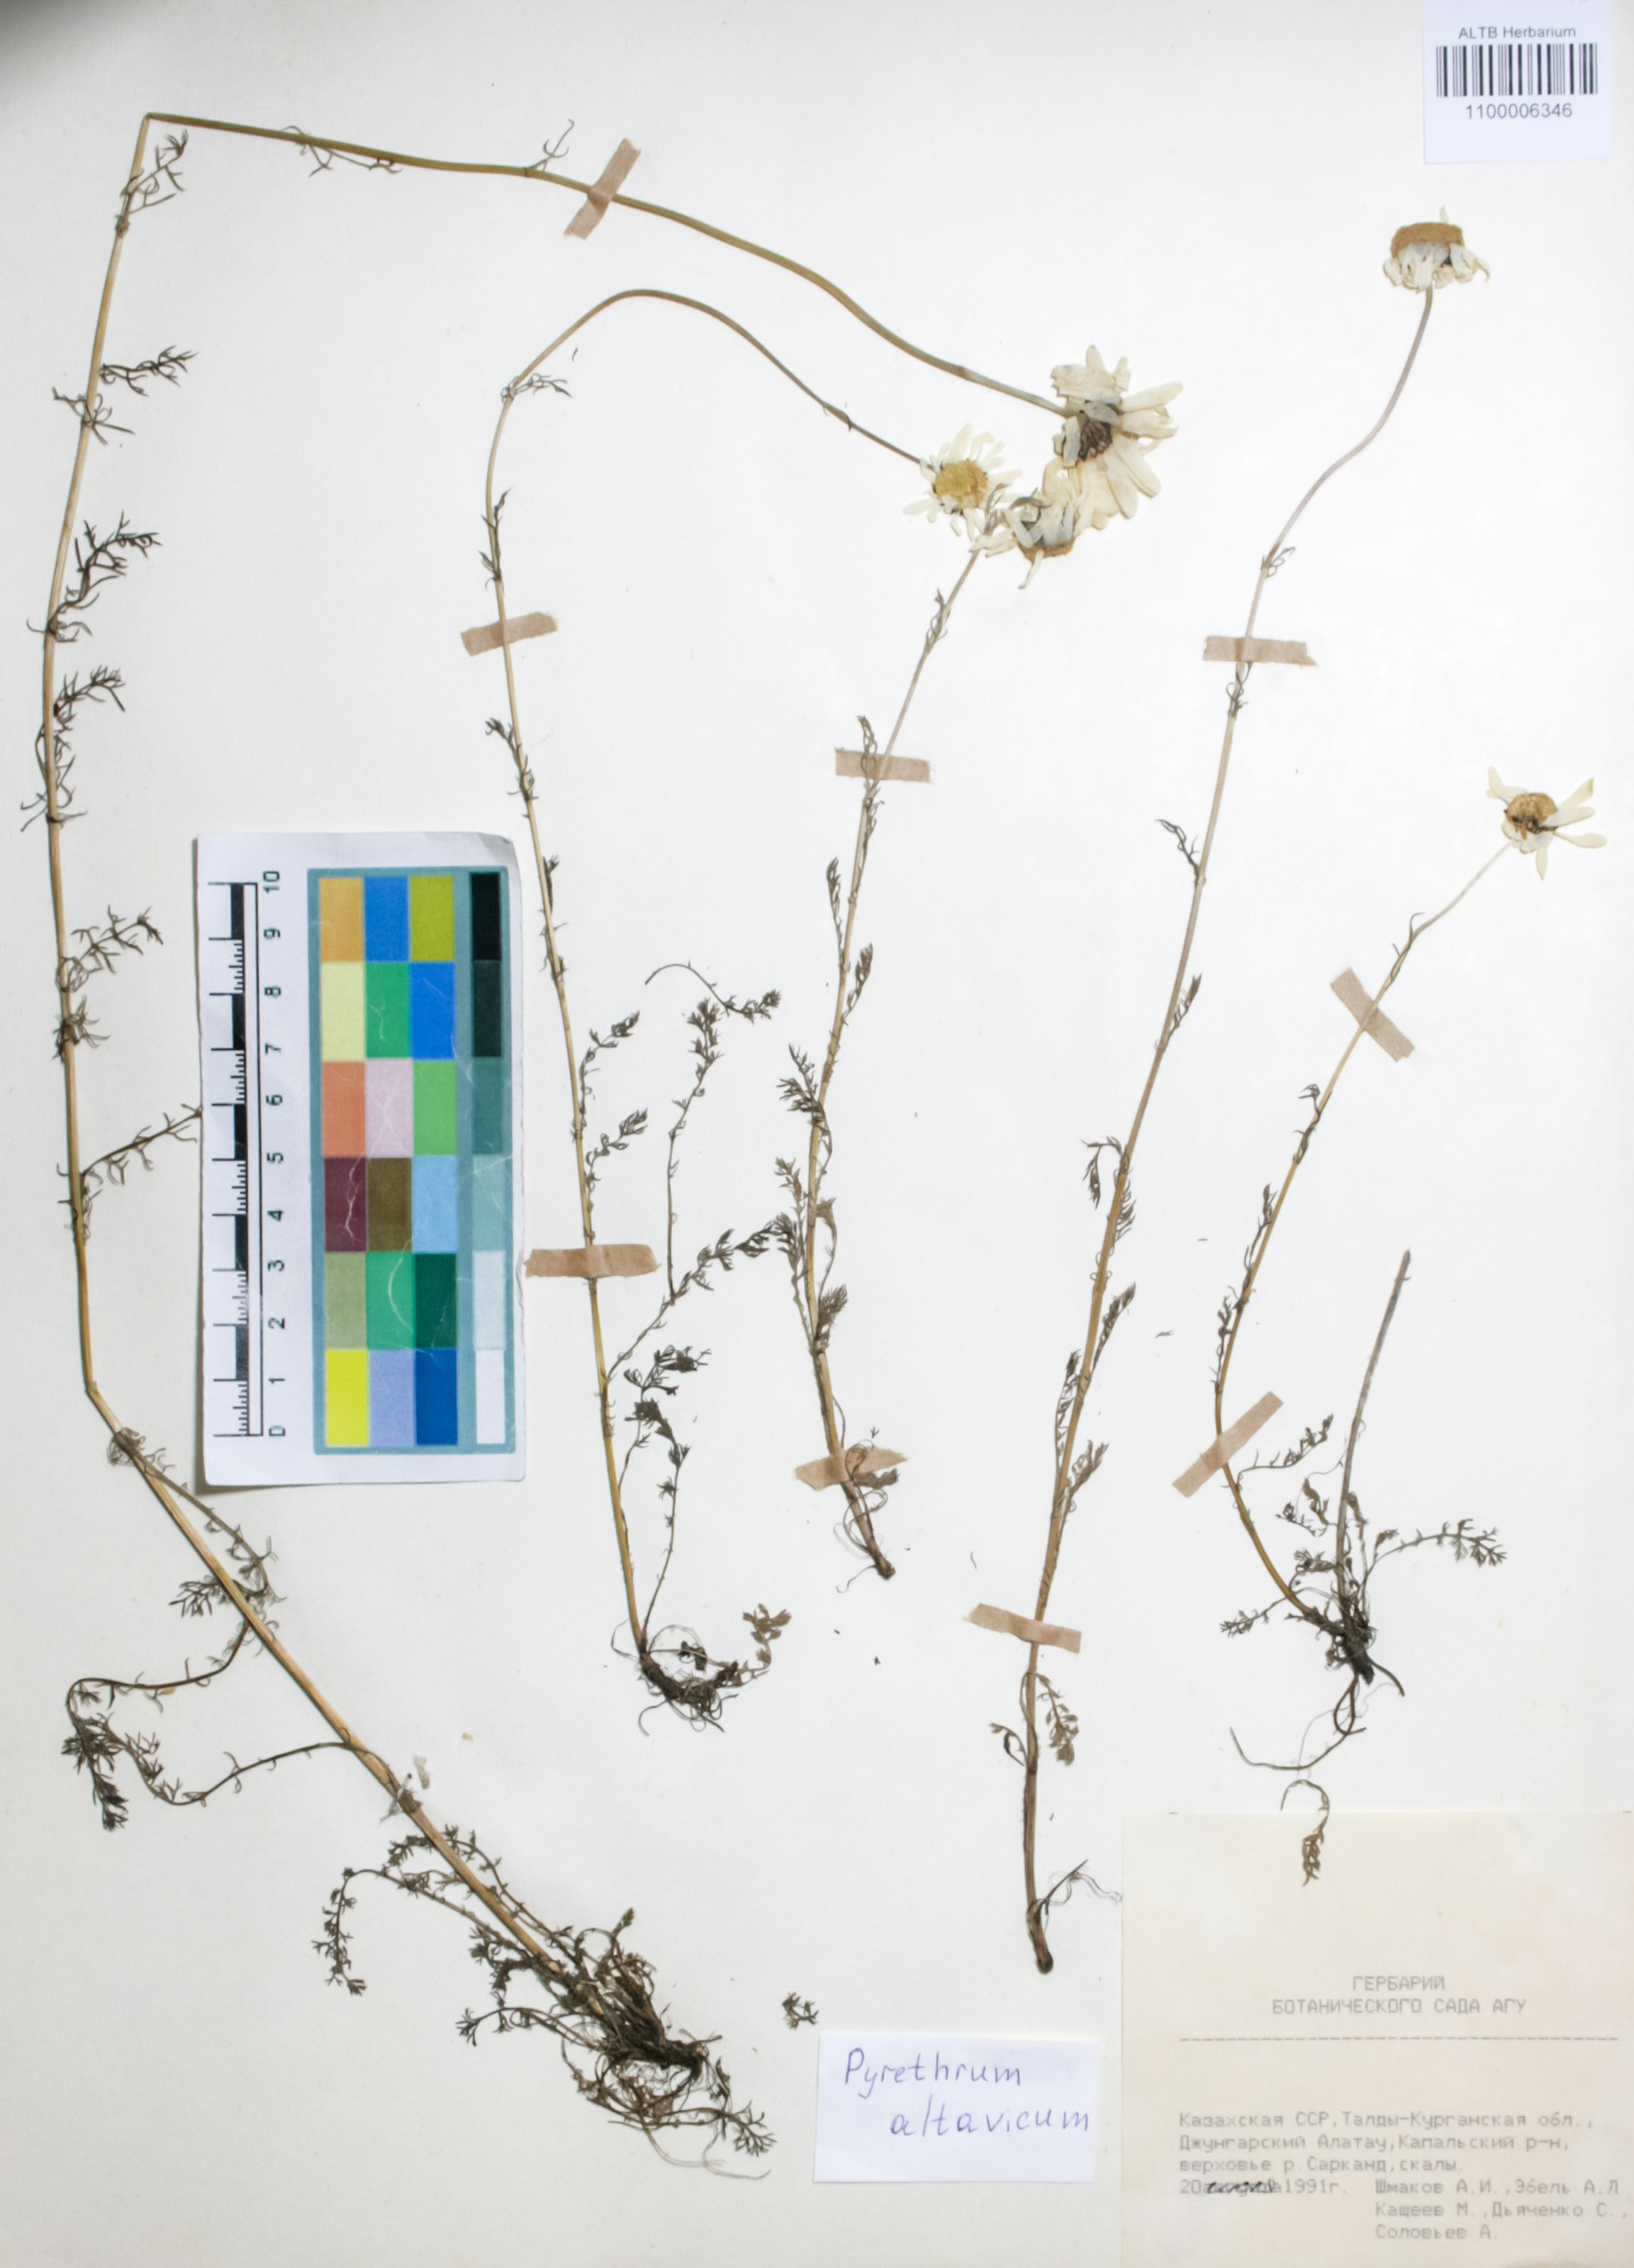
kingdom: Plantae
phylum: Tracheophyta
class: Magnoliopsida
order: Asterales
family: Asteraceae
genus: Tanacetum
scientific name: Tanacetum alatavicum
